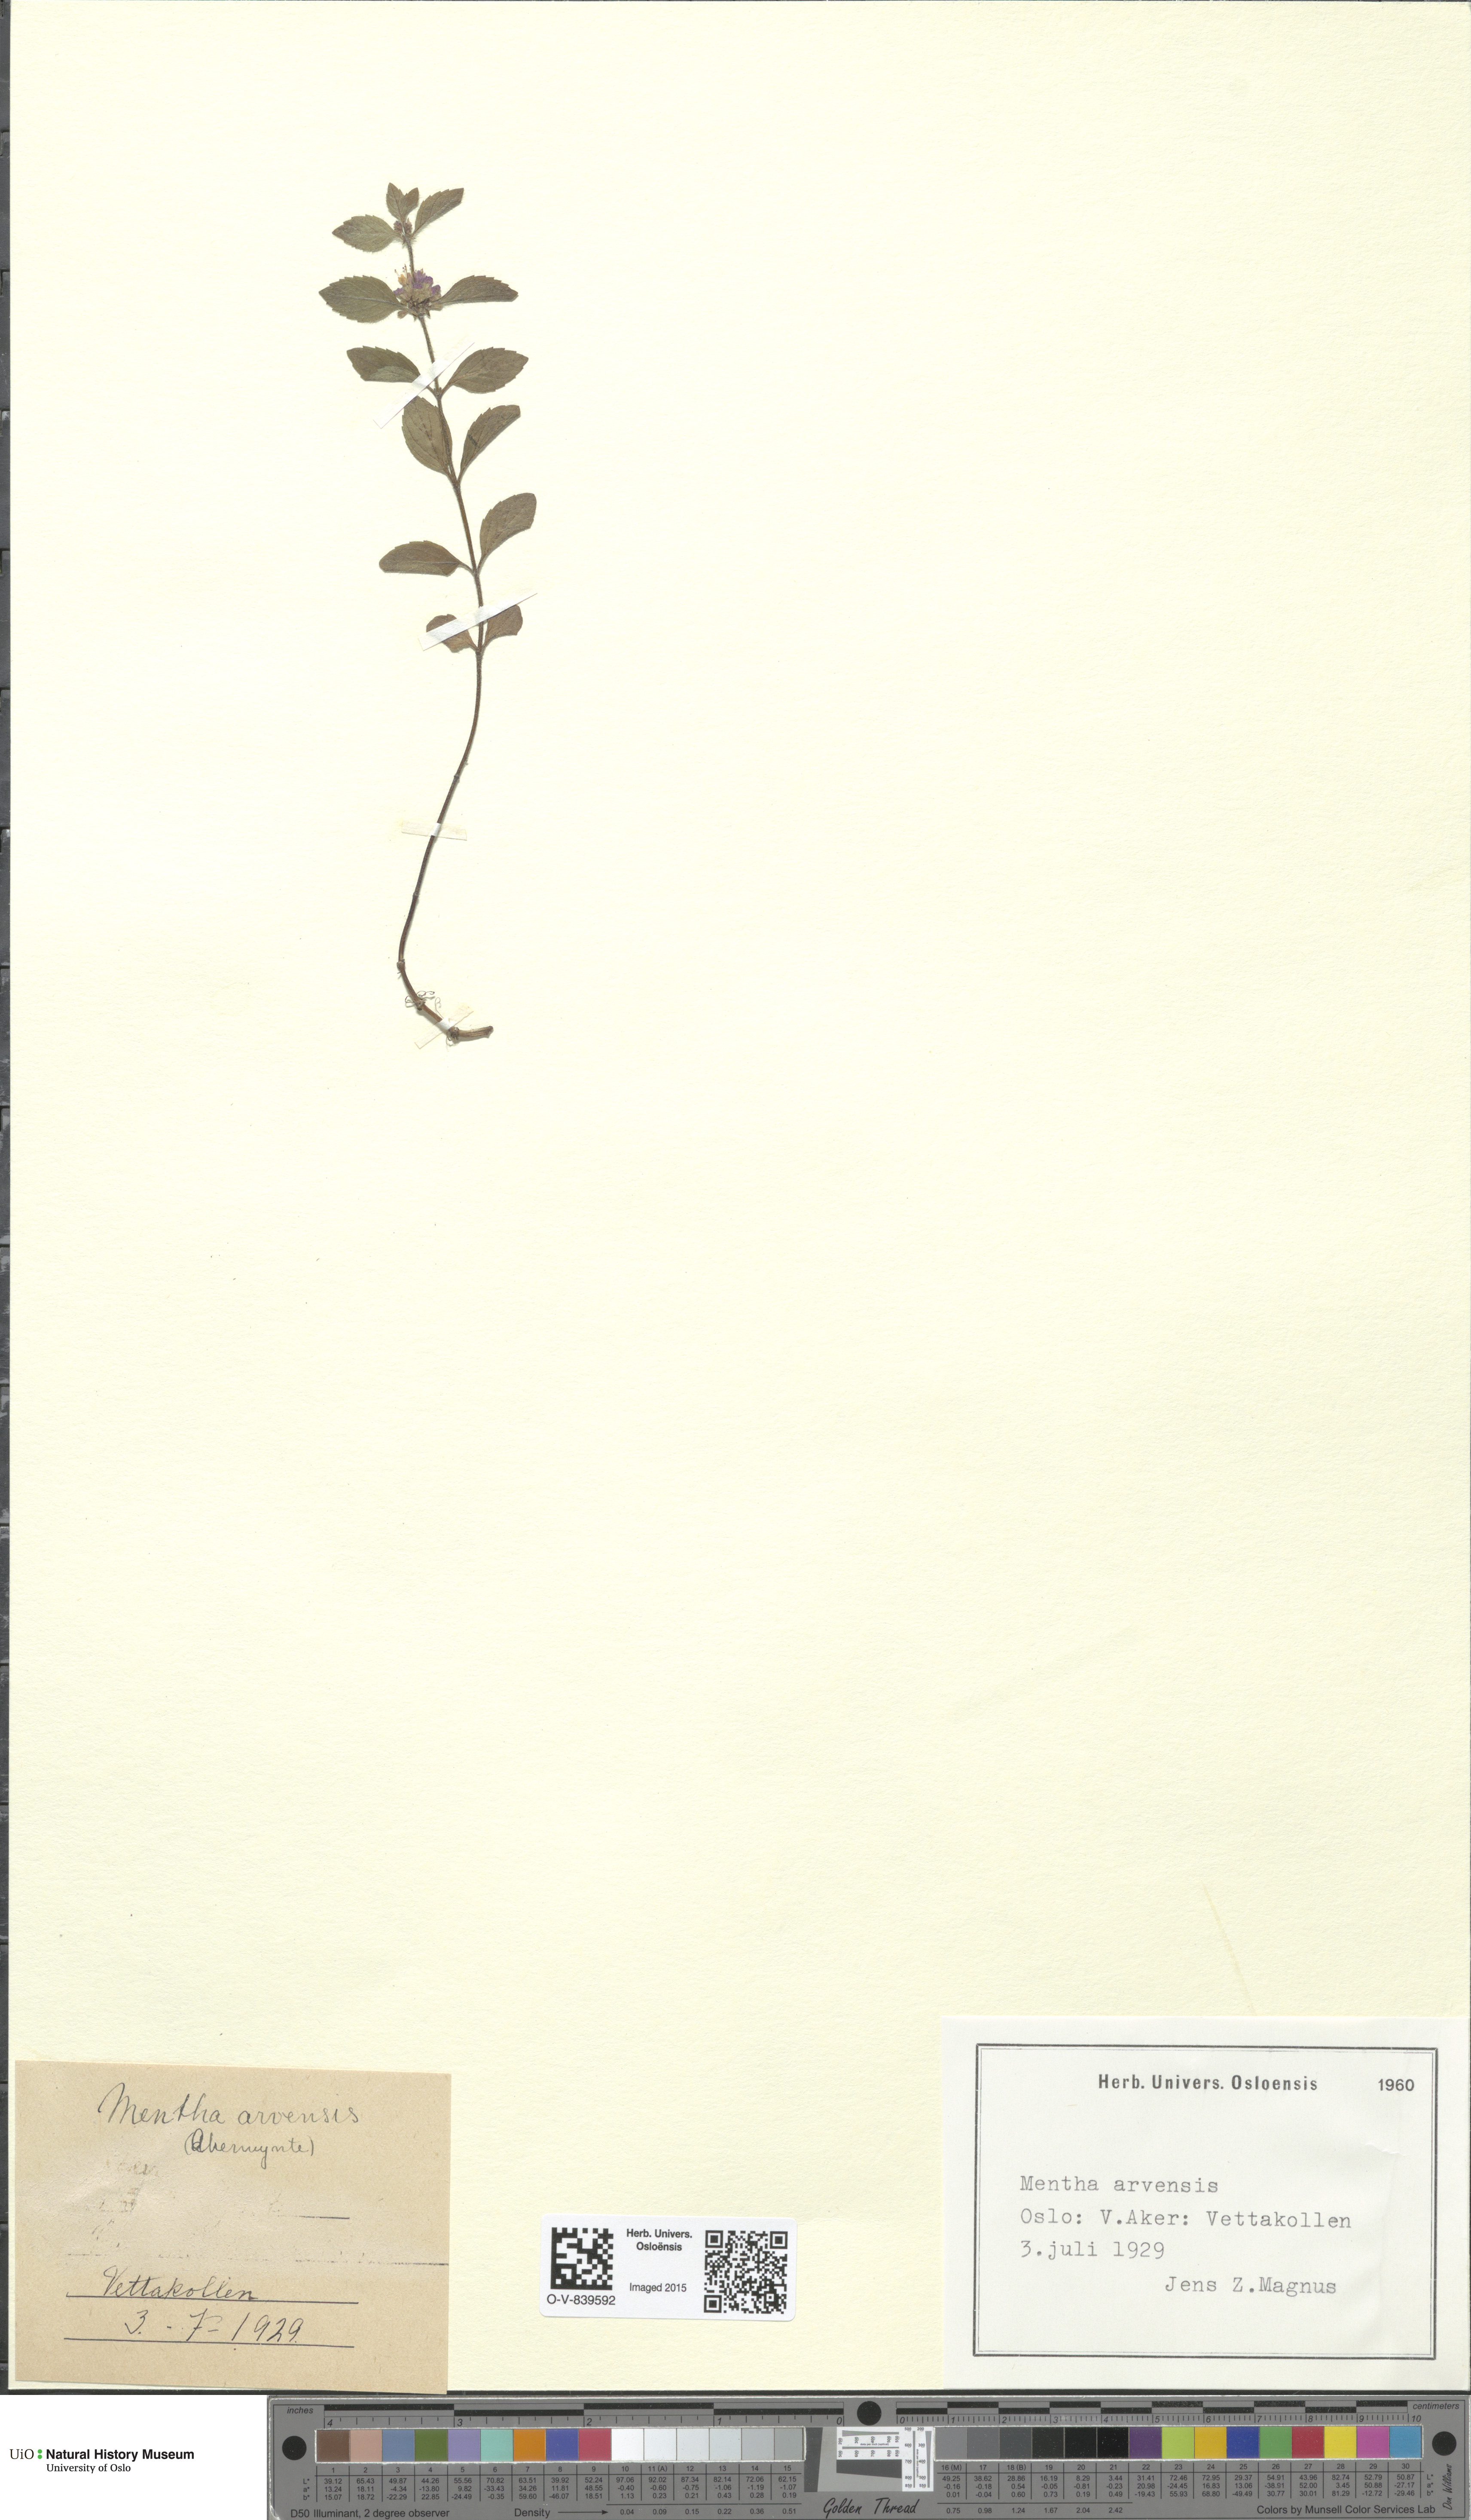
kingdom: Plantae
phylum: Tracheophyta
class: Magnoliopsida
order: Lamiales
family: Lamiaceae
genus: Mentha
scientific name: Mentha arvensis
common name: Corn mint
